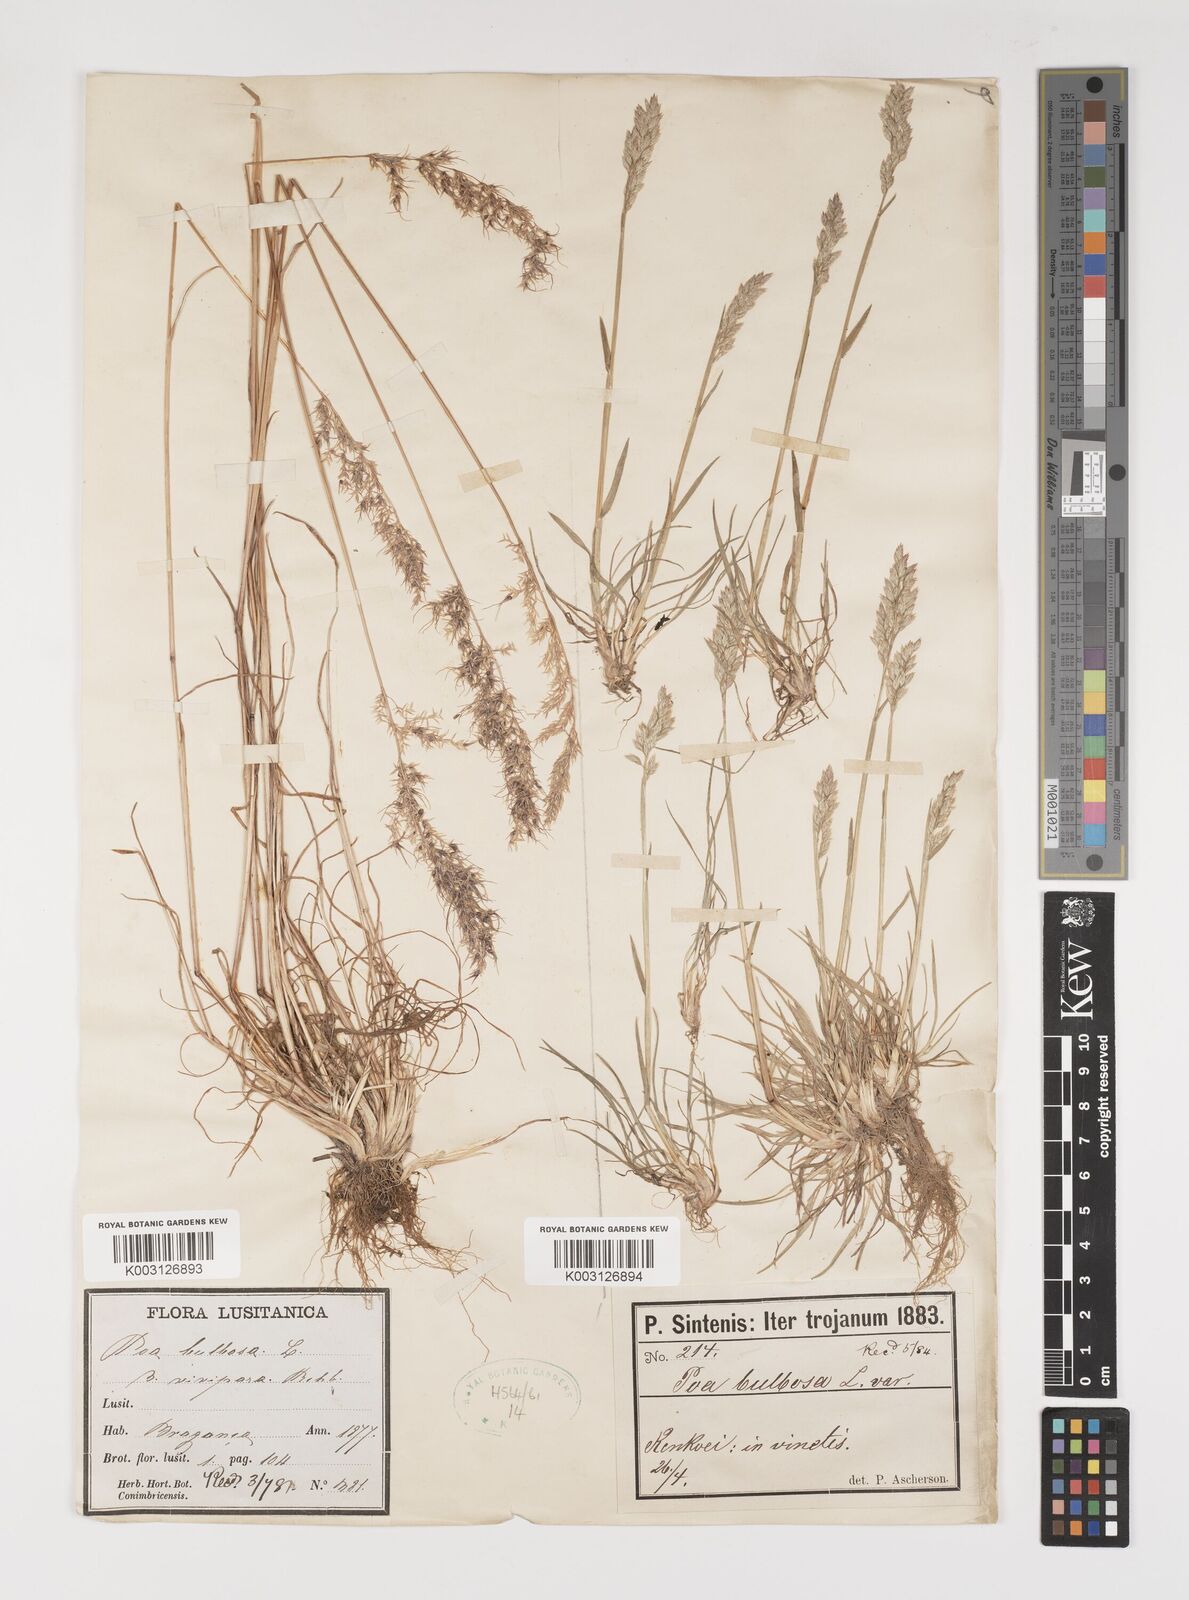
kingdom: Plantae
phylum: Tracheophyta
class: Liliopsida
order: Poales
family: Poaceae
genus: Poa
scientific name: Poa bulbosa
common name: Bulbous bluegrass
